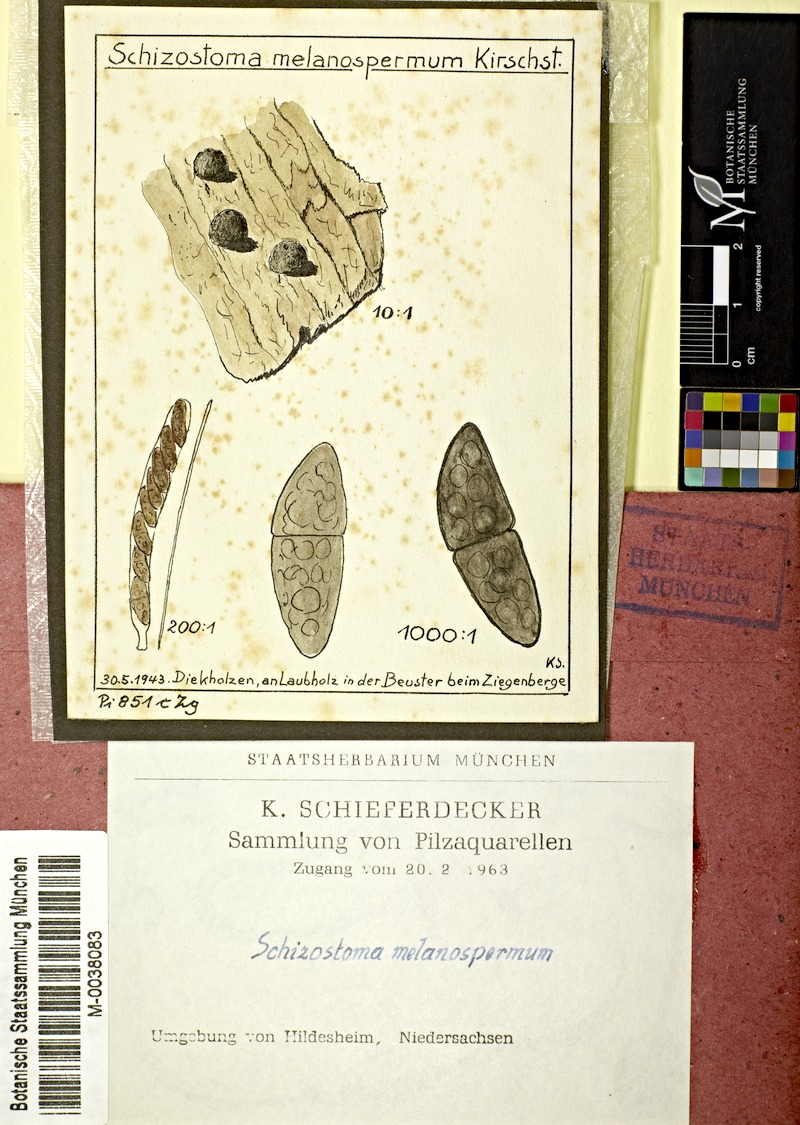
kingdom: Fungi
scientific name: Fungi
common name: Fungi
